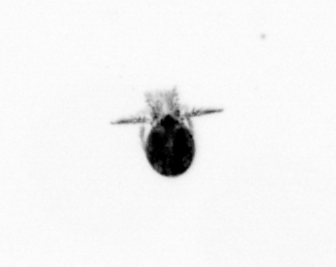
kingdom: Animalia
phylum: Arthropoda
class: Copepoda
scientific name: Copepoda
